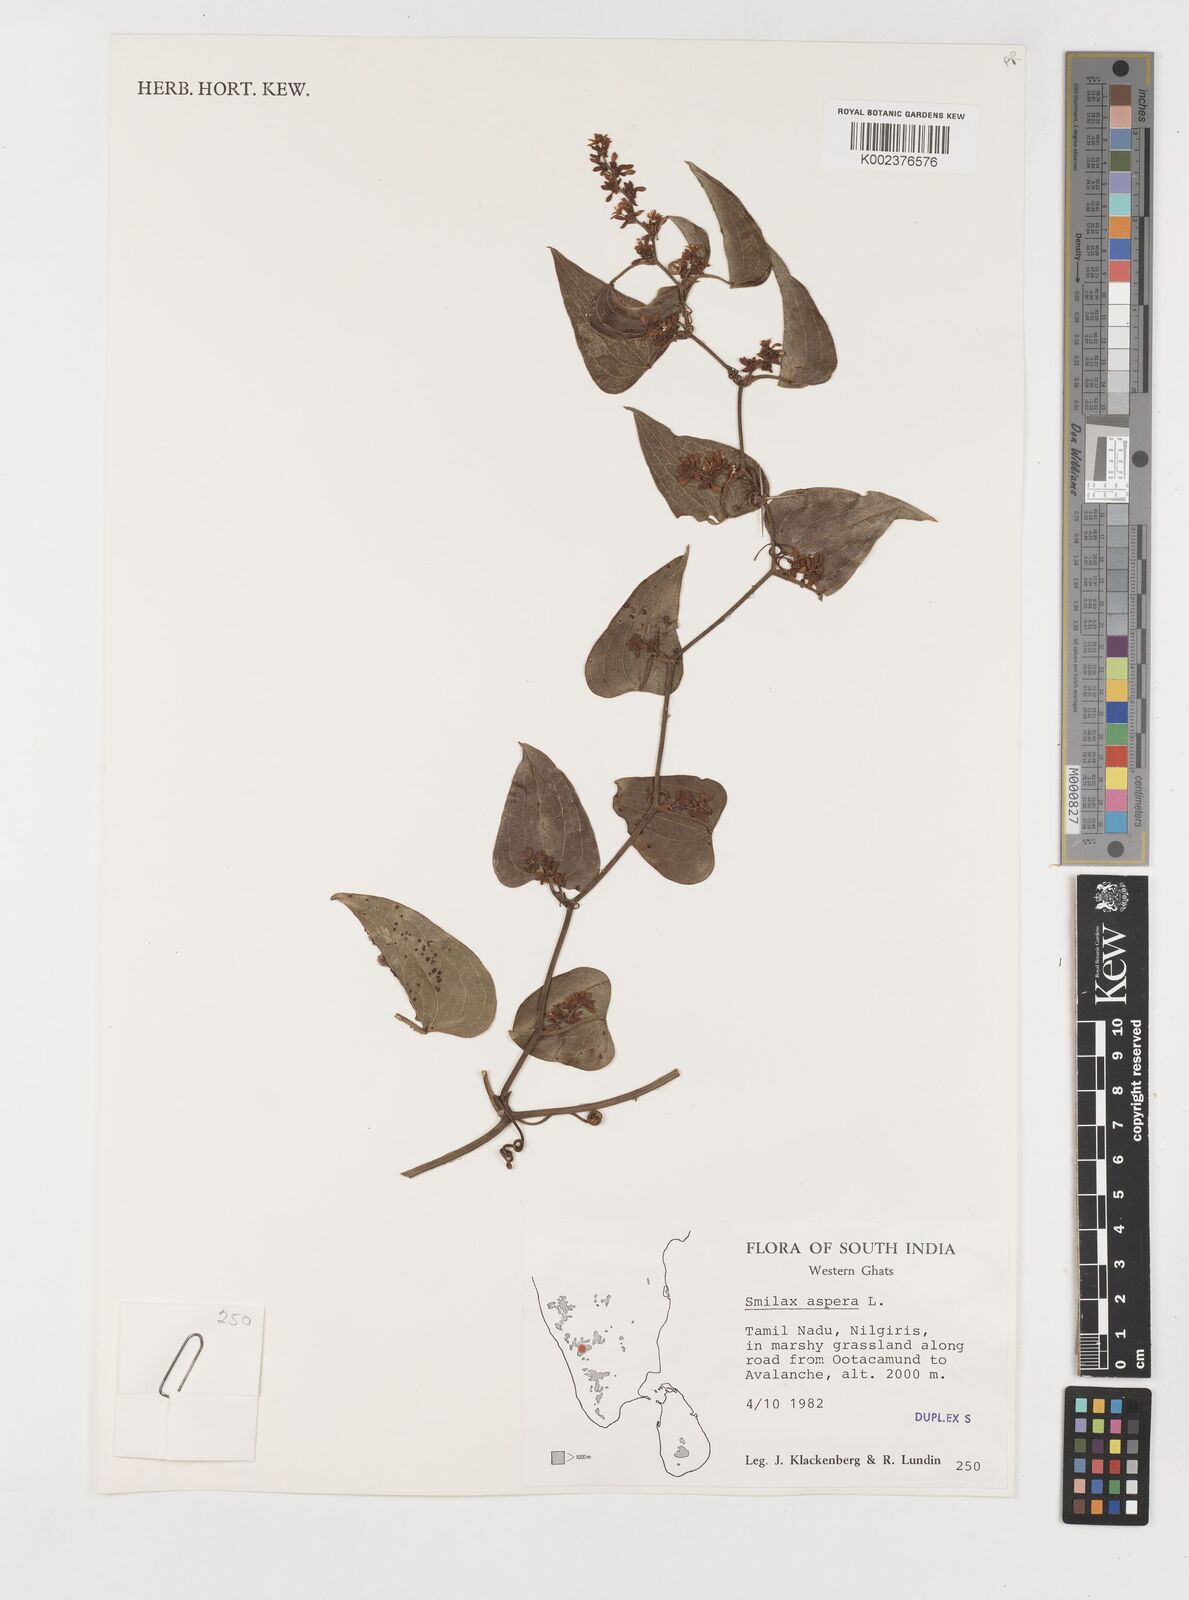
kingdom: Plantae
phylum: Tracheophyta
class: Liliopsida
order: Liliales
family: Smilacaceae
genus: Smilax
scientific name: Smilax aspera
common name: Common smilax
